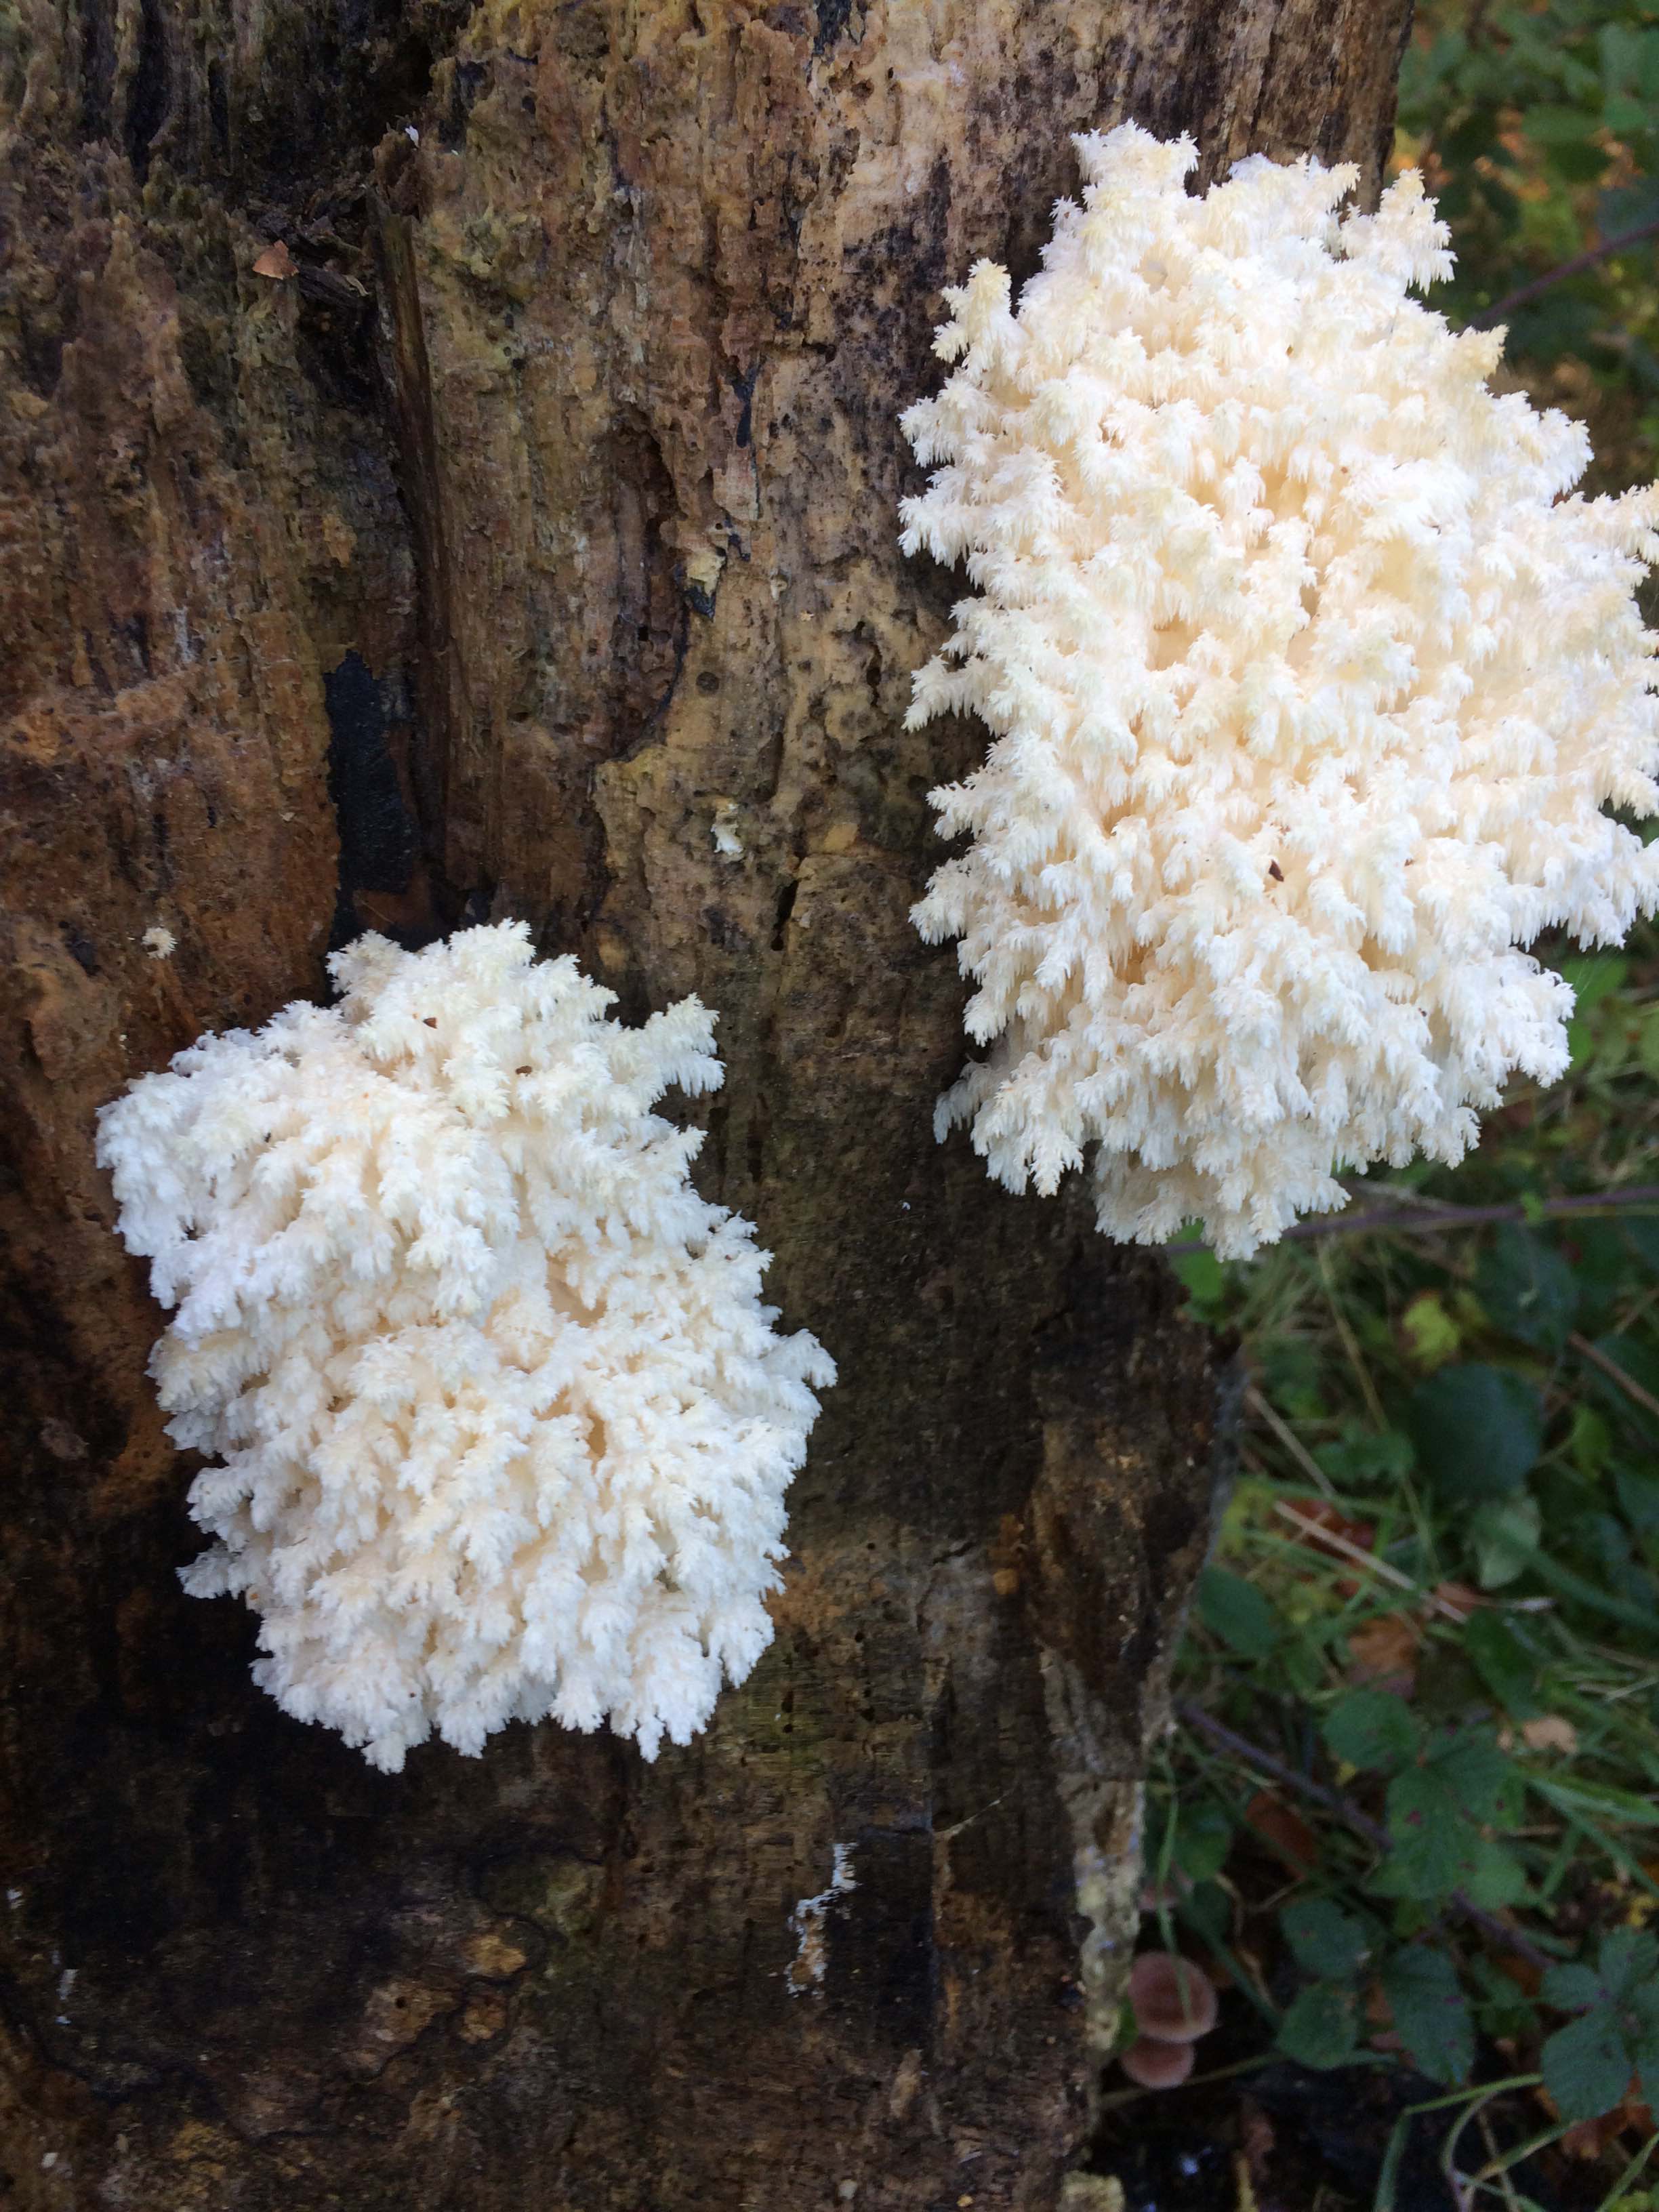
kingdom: Fungi
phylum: Basidiomycota
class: Agaricomycetes
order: Russulales
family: Hericiaceae
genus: Hericium
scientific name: Hericium coralloides
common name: koralpigsvamp
